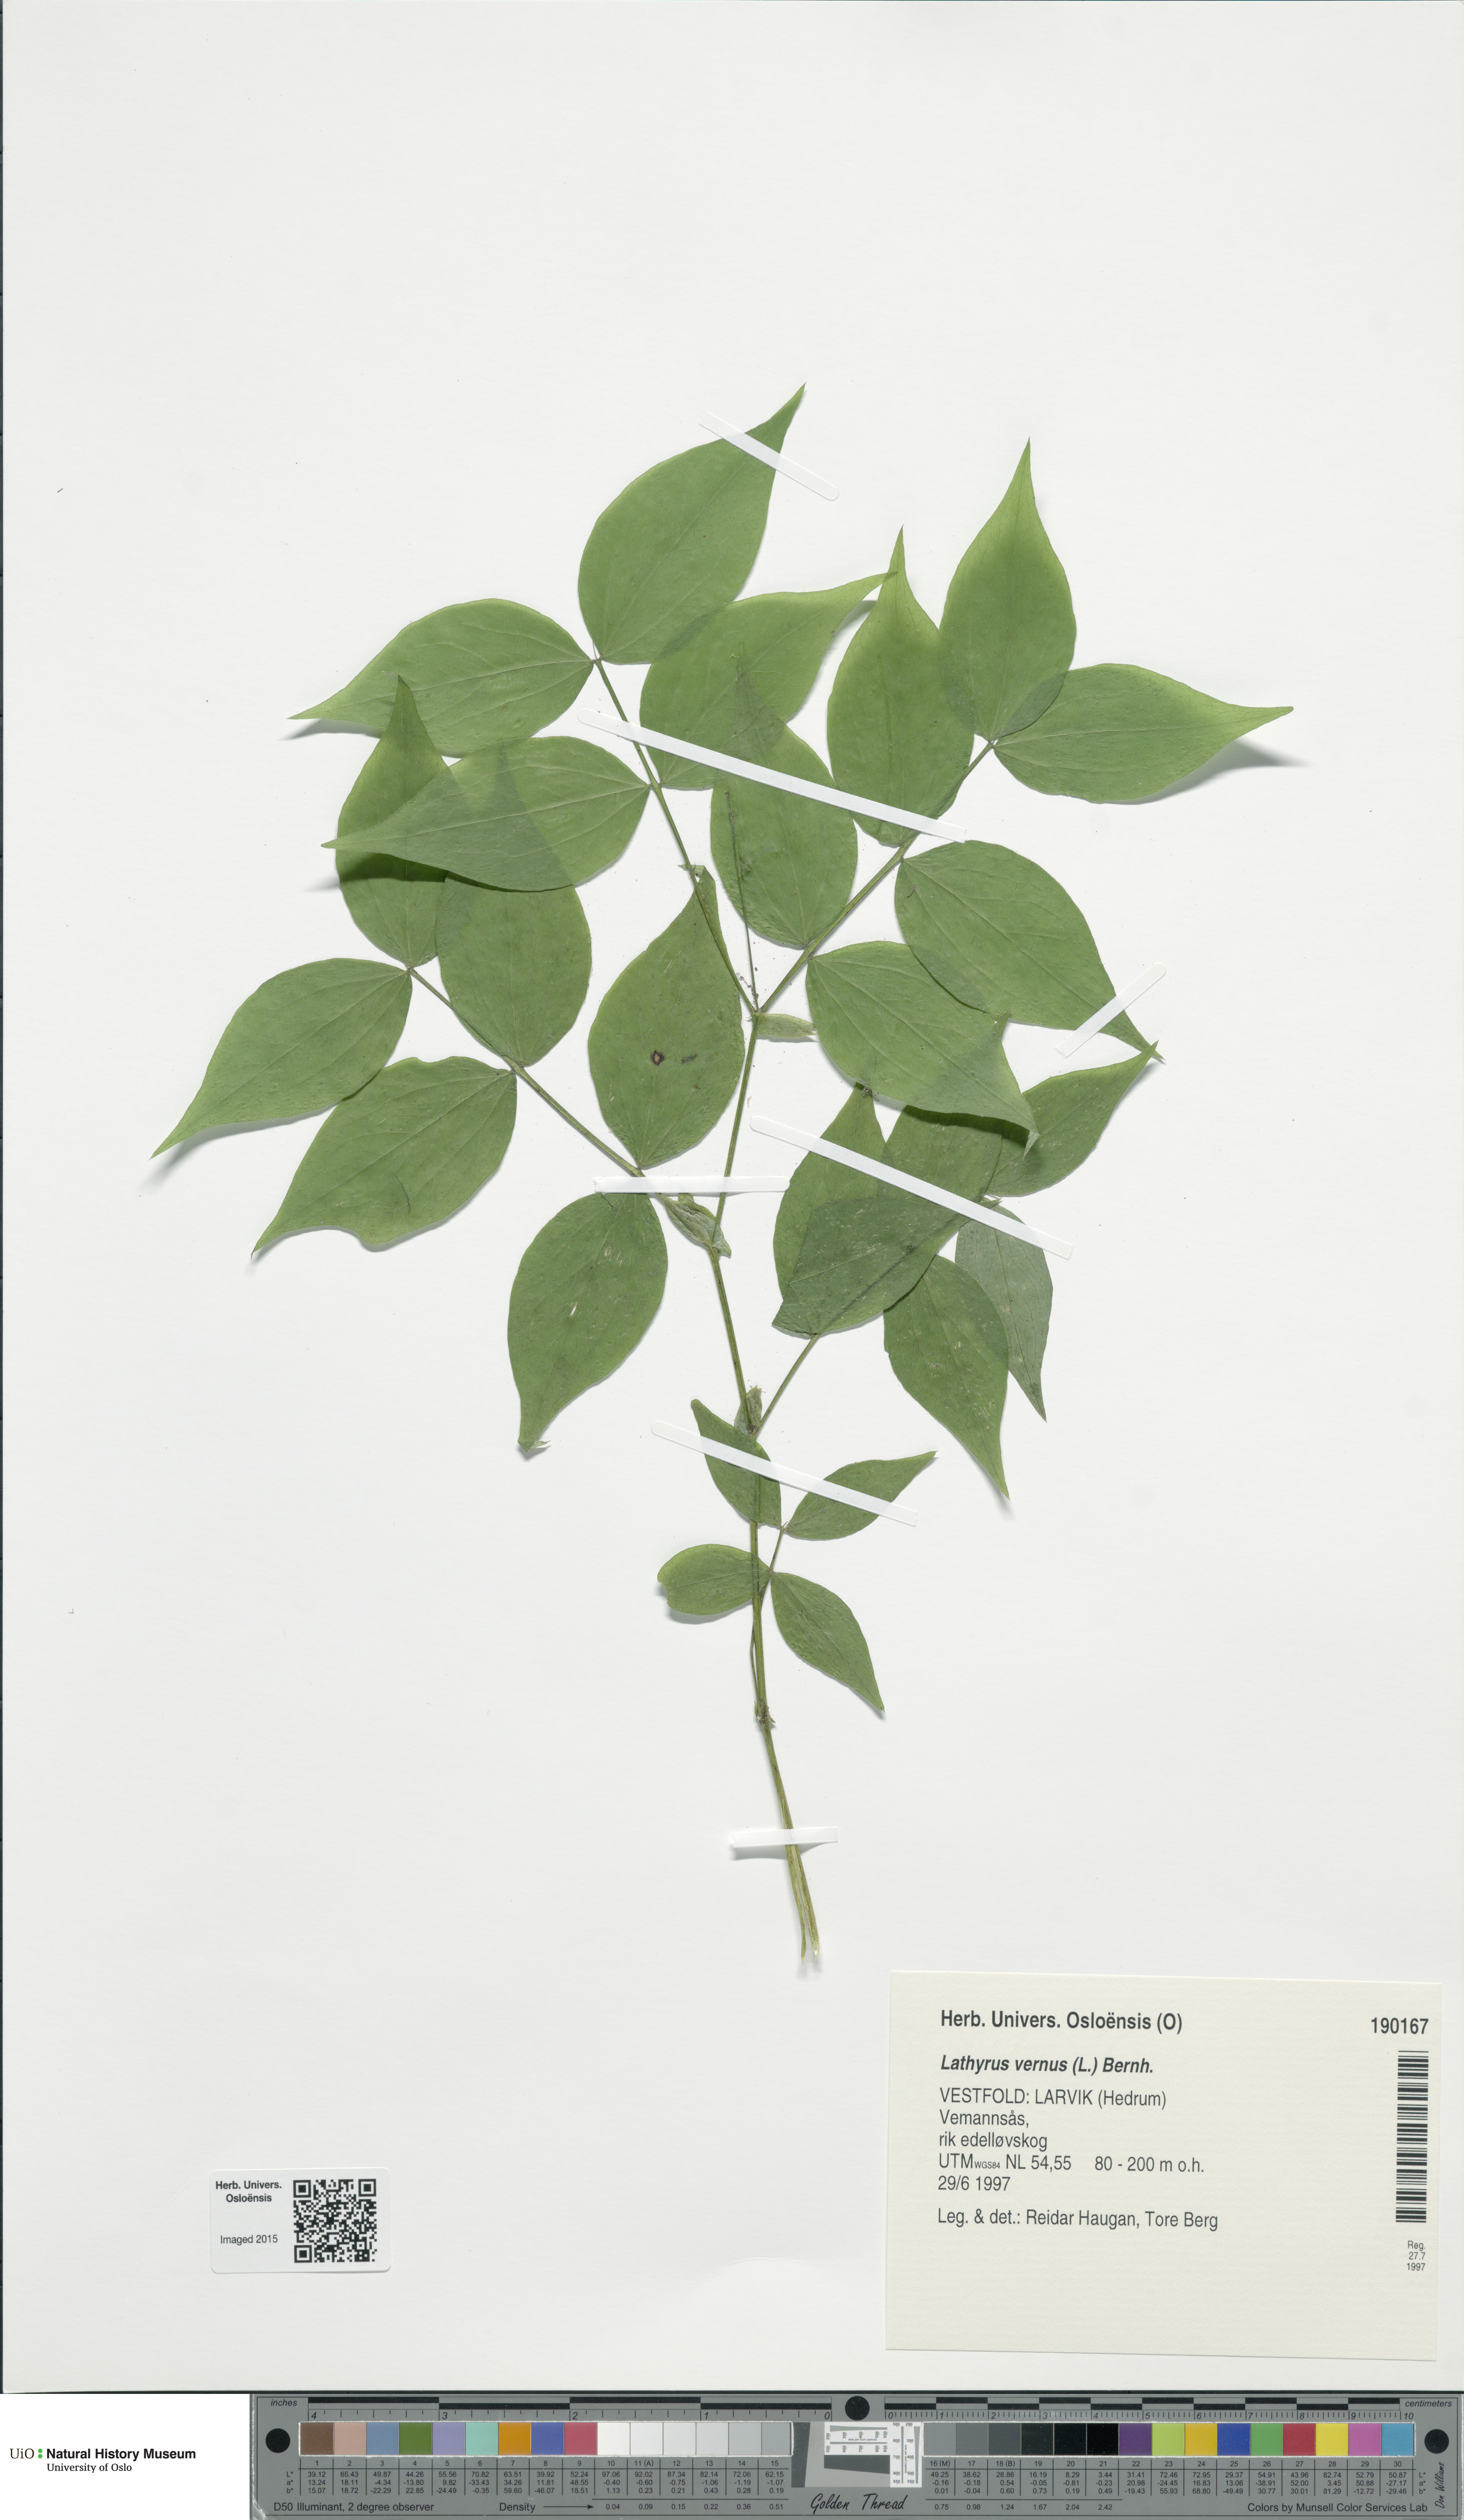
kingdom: Plantae
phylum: Tracheophyta
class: Magnoliopsida
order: Fabales
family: Fabaceae
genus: Lathyrus
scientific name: Lathyrus vernus
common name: Spring pea
